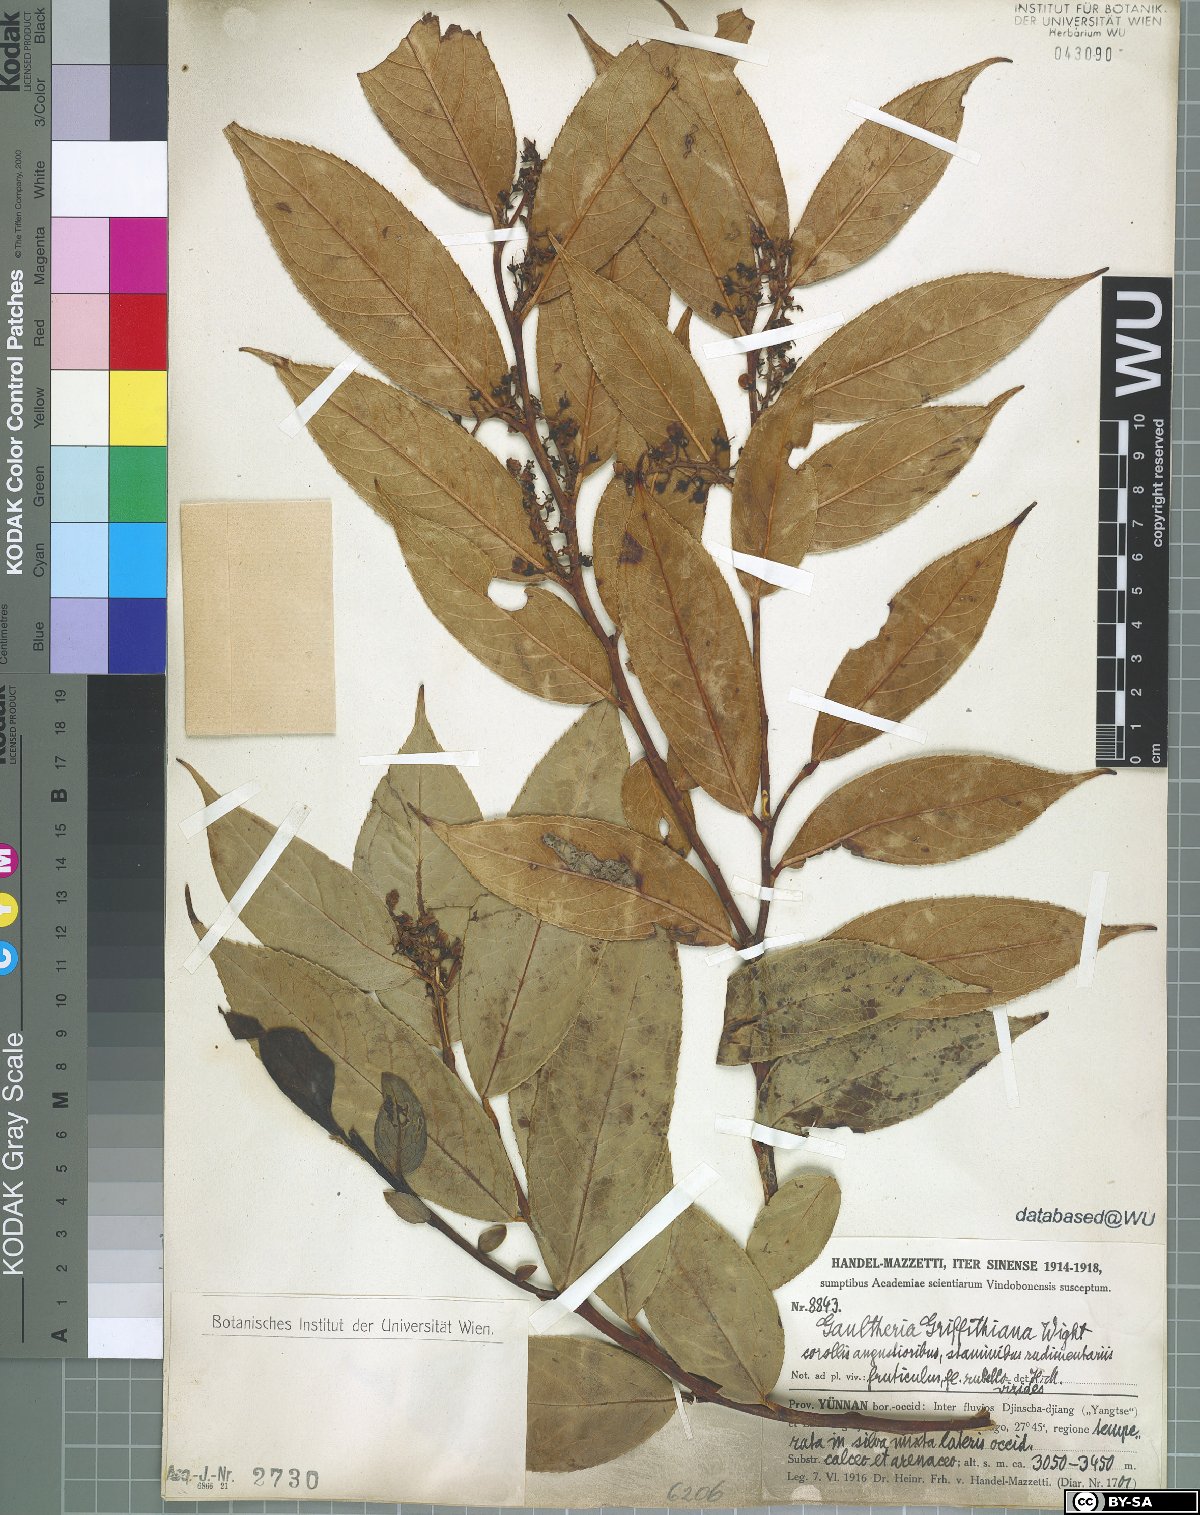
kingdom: Plantae
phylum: Tracheophyta
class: Magnoliopsida
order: Ericales
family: Ericaceae
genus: Gaultheria
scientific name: Gaultheria griffithiana
